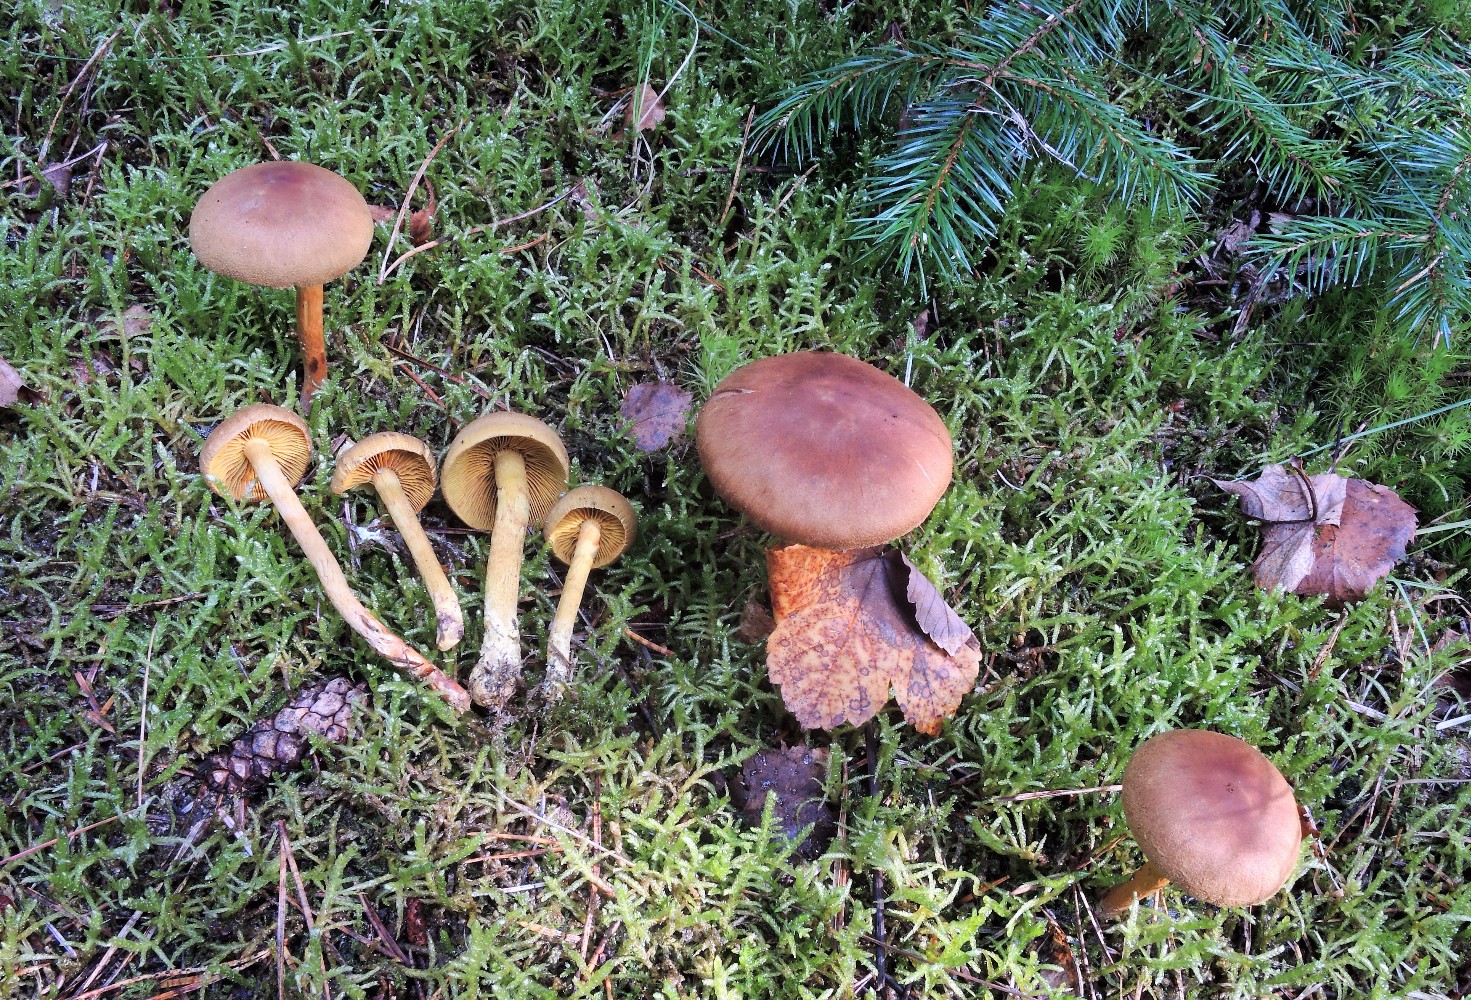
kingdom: Fungi
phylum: Basidiomycota
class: Agaricomycetes
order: Agaricales
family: Cortinariaceae
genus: Cortinarius
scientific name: Cortinarius
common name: gulbladet slørhat
